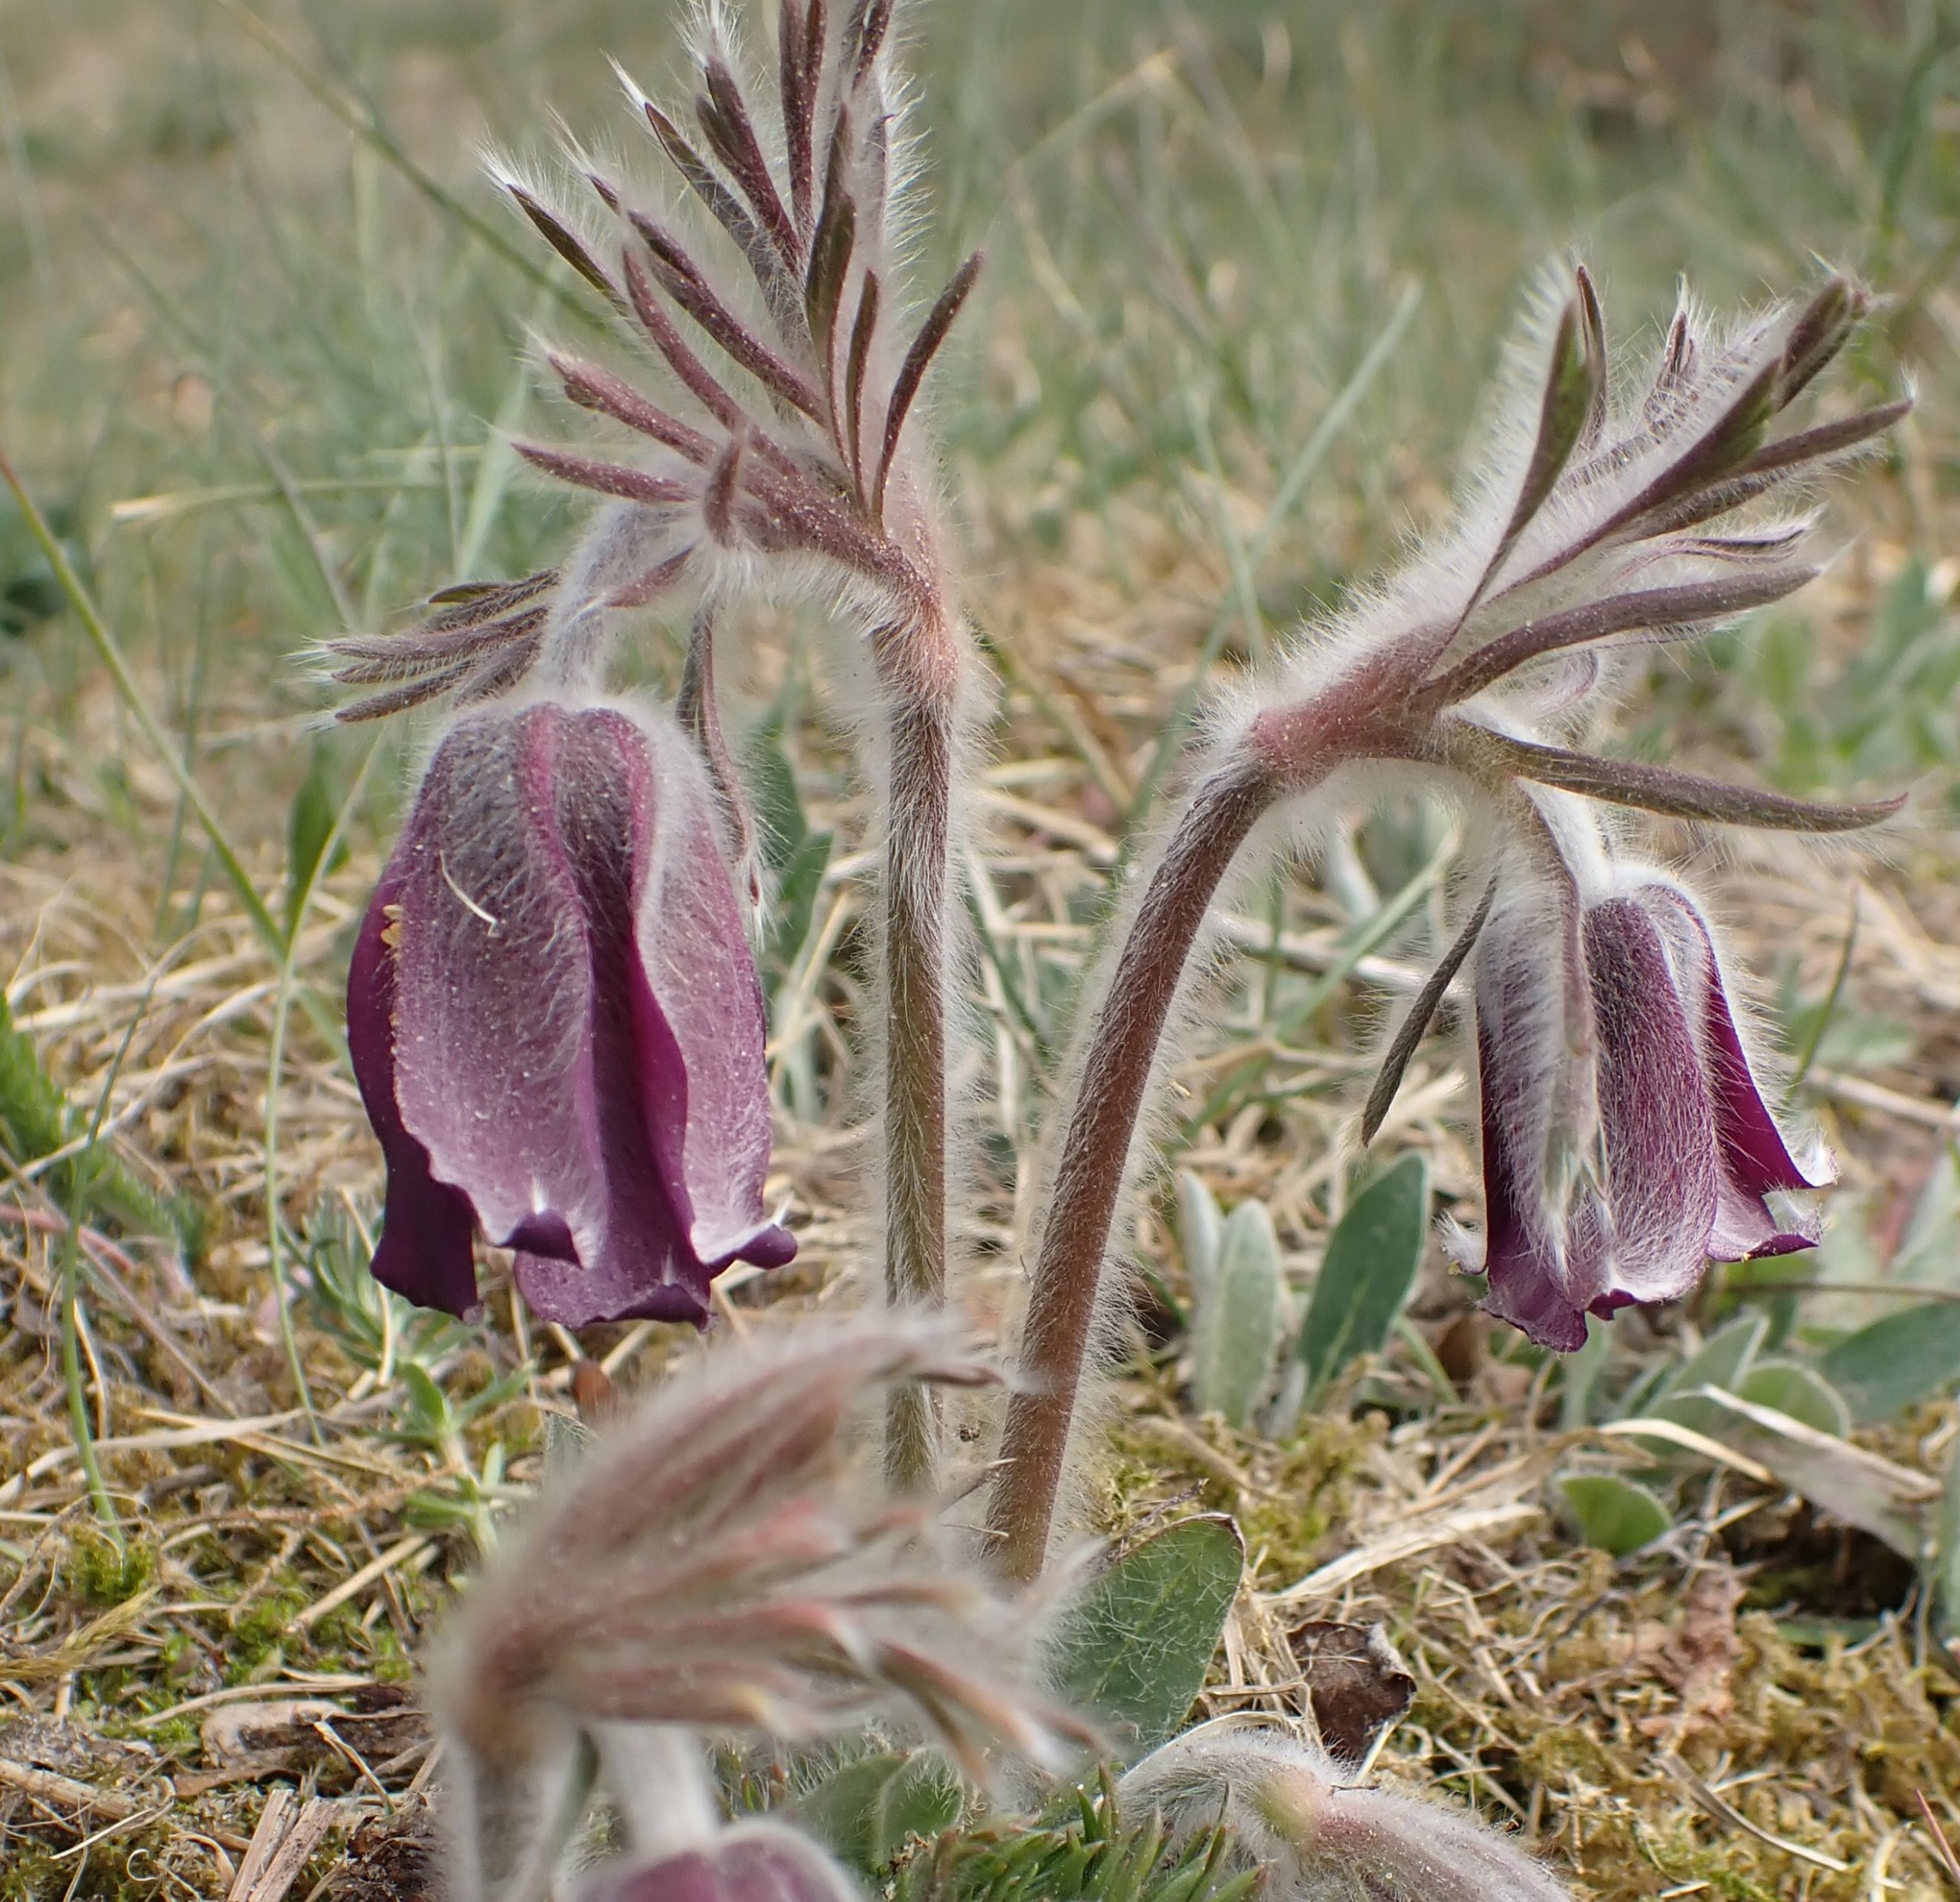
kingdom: Plantae
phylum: Tracheophyta
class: Magnoliopsida
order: Ranunculales
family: Ranunculaceae
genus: Pulsatilla
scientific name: Pulsatilla pratensis
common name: Nikkende kobjælde
